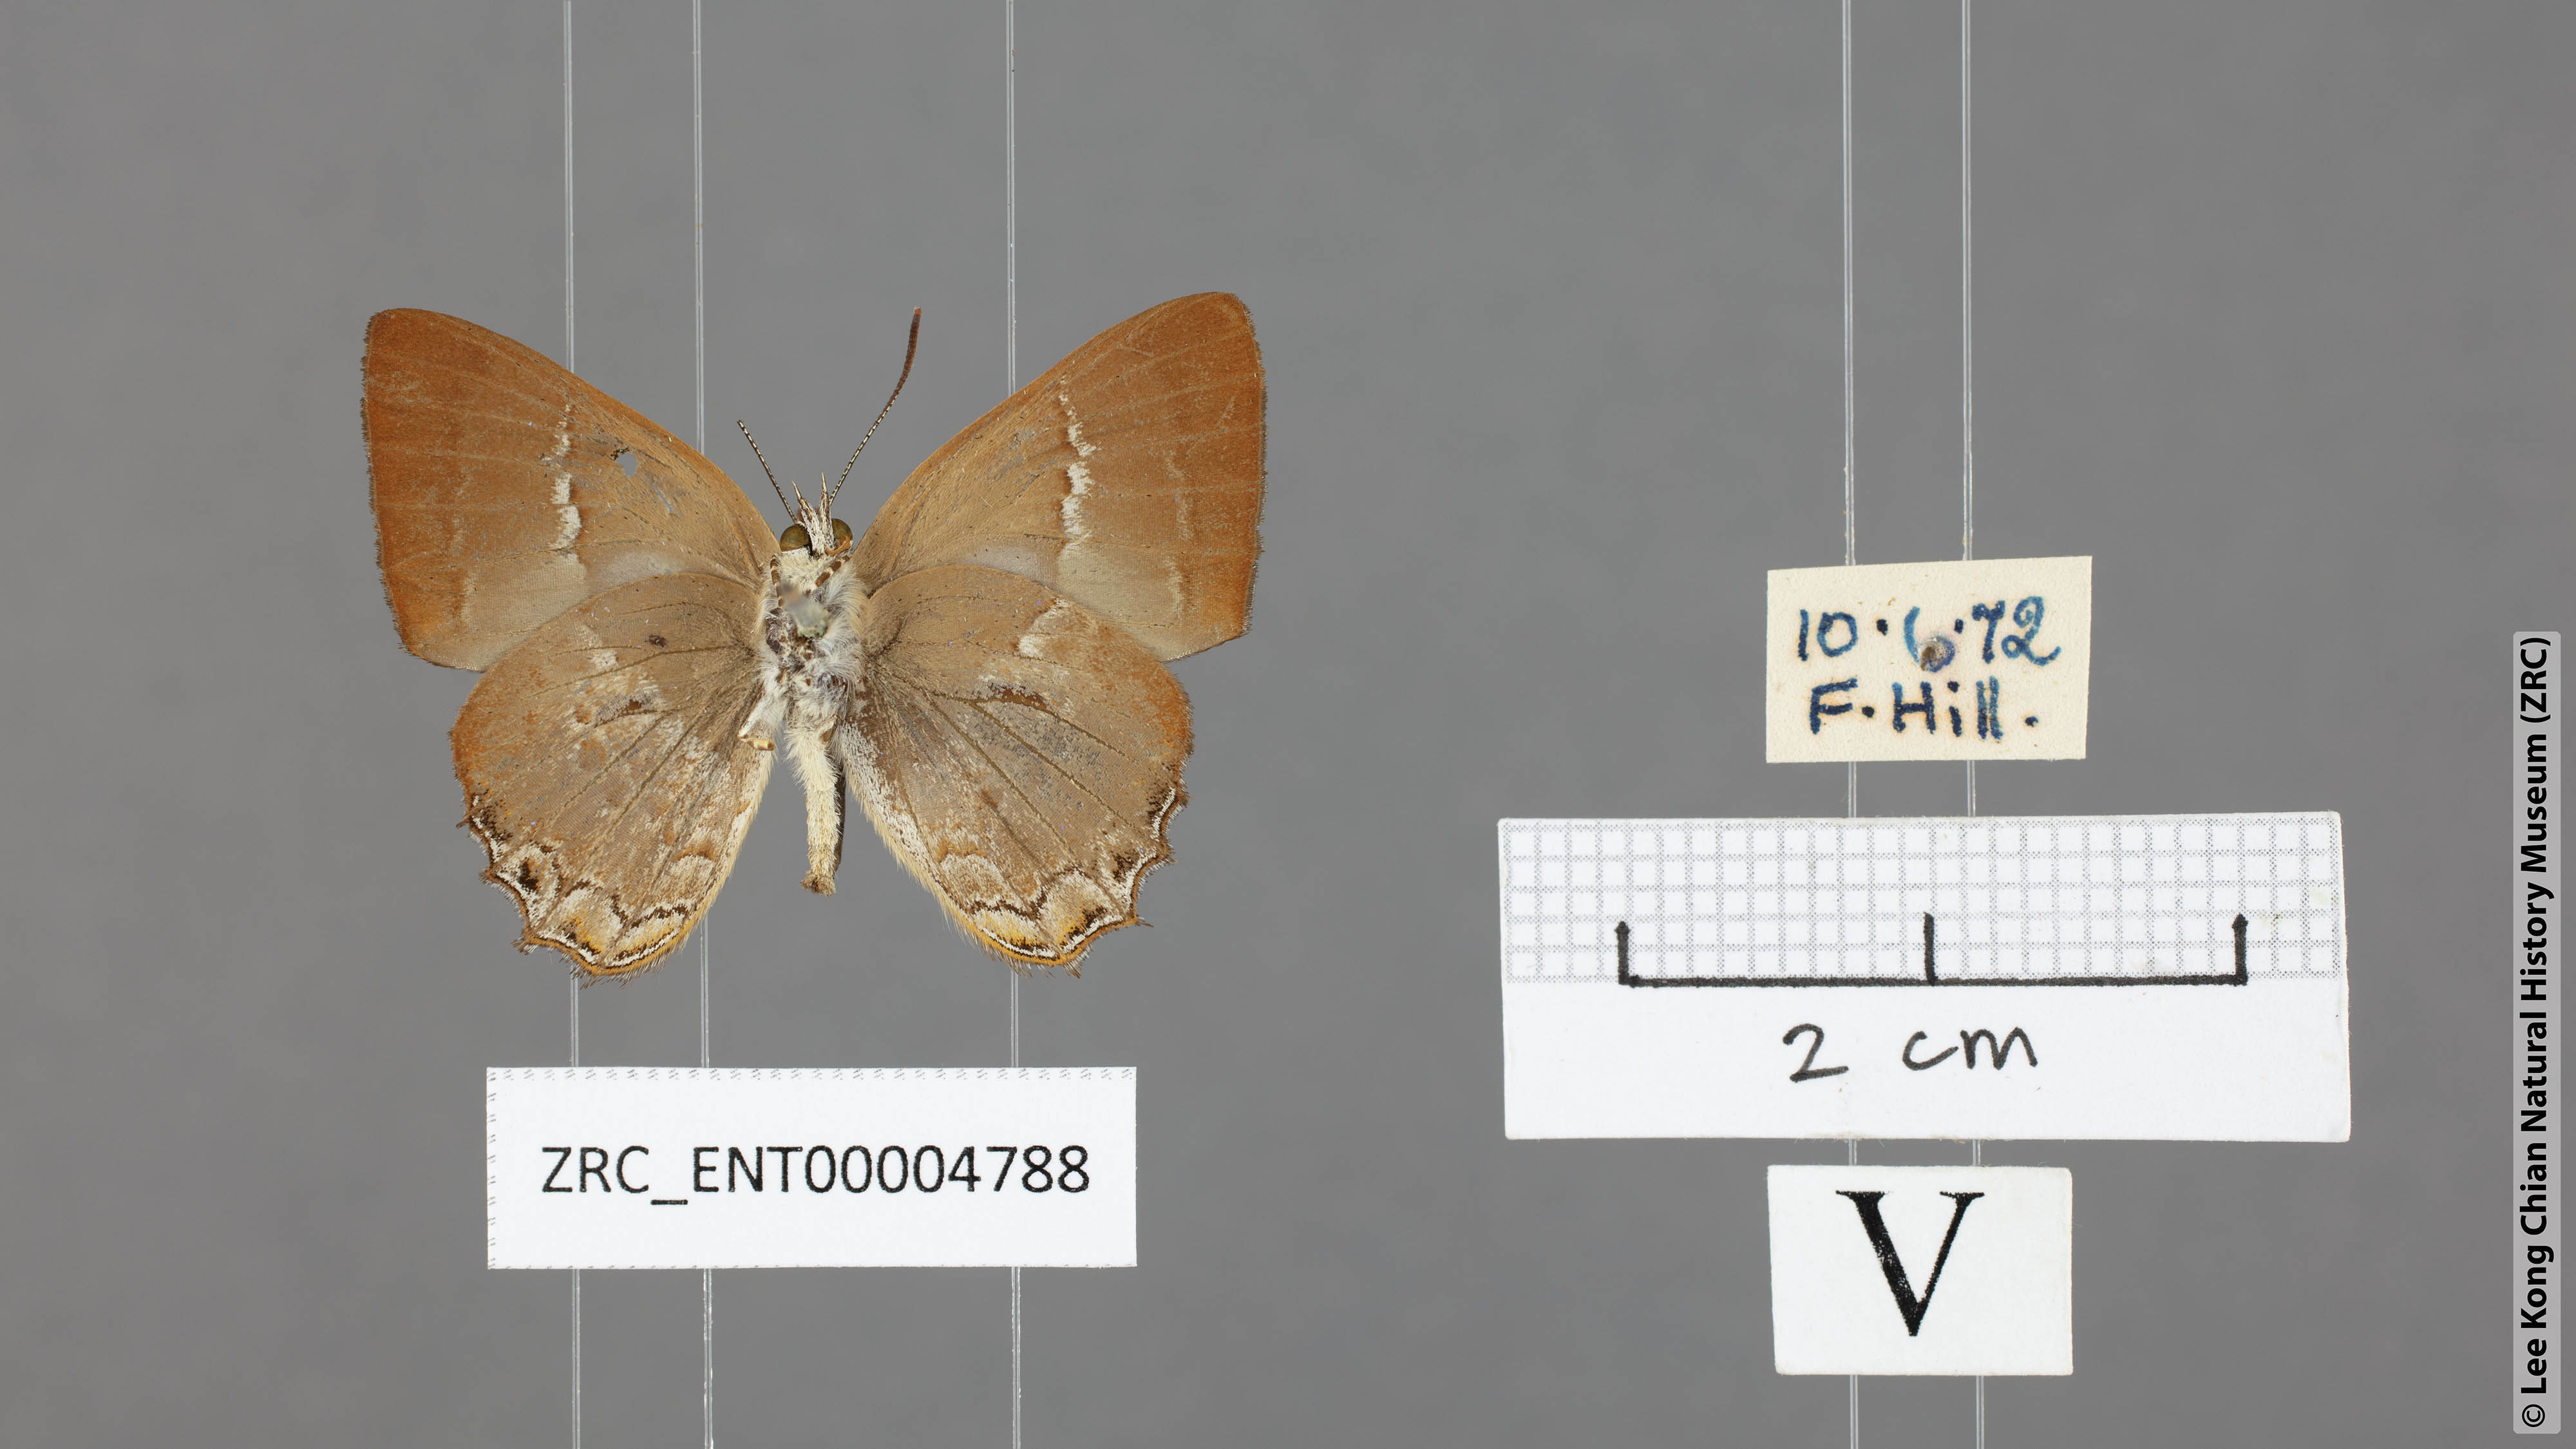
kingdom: Animalia
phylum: Arthropoda
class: Insecta
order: Lepidoptera
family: Lycaenidae
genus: Simiskina
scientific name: Simiskina pheretia
